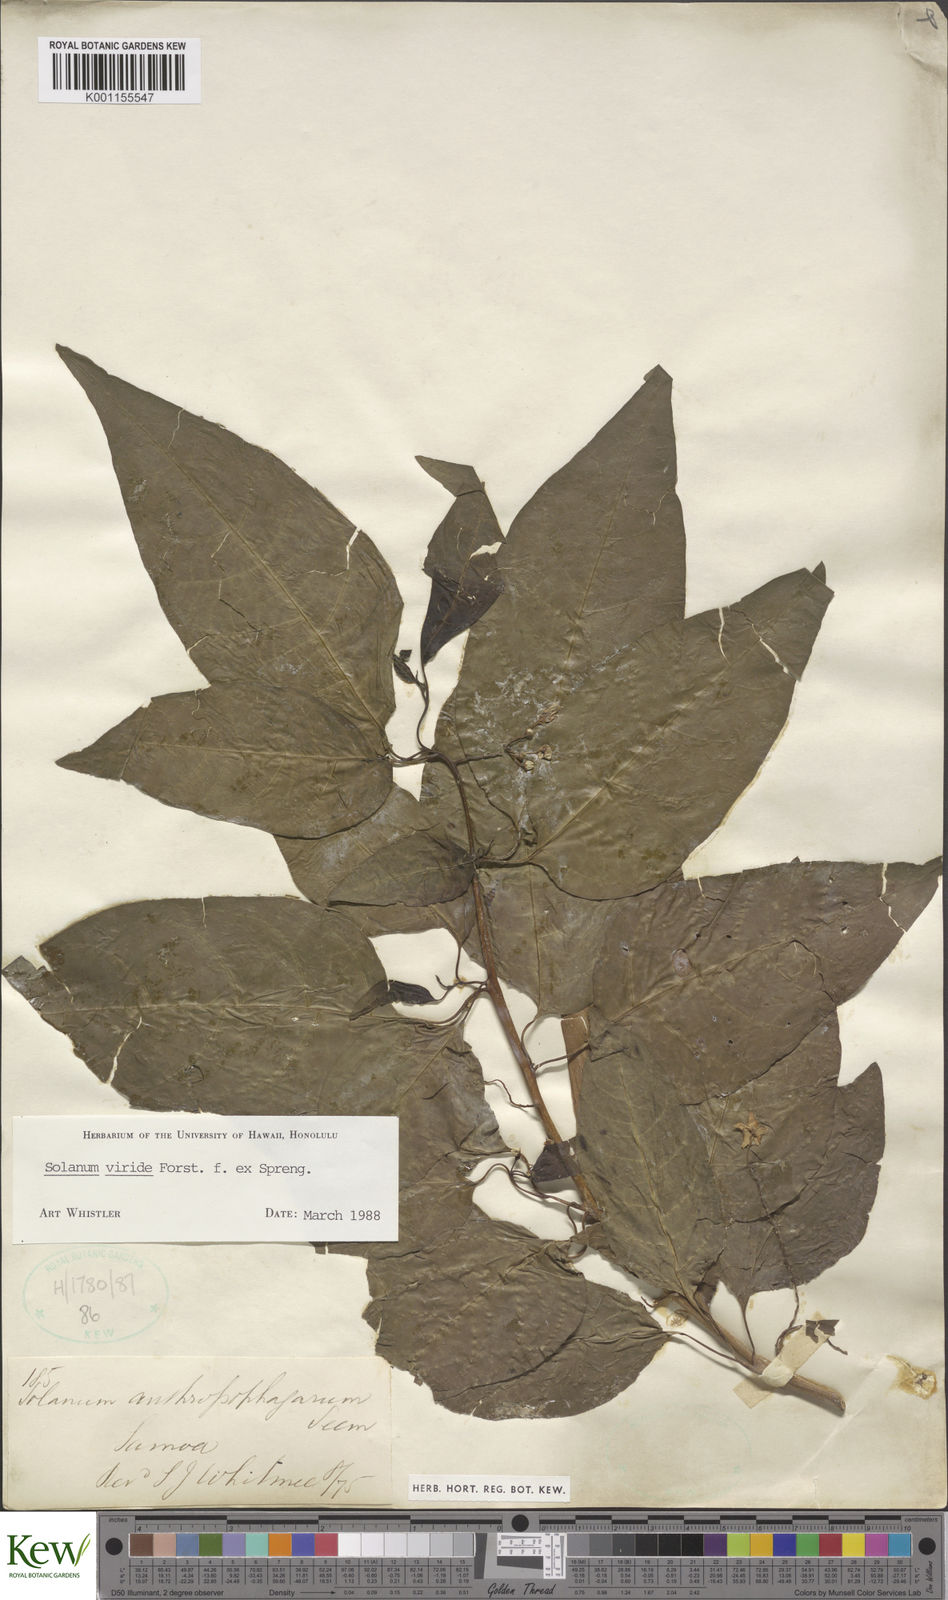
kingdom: Plantae
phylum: Tracheophyta
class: Magnoliopsida
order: Solanales
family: Solanaceae
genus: Solanum
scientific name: Solanum
